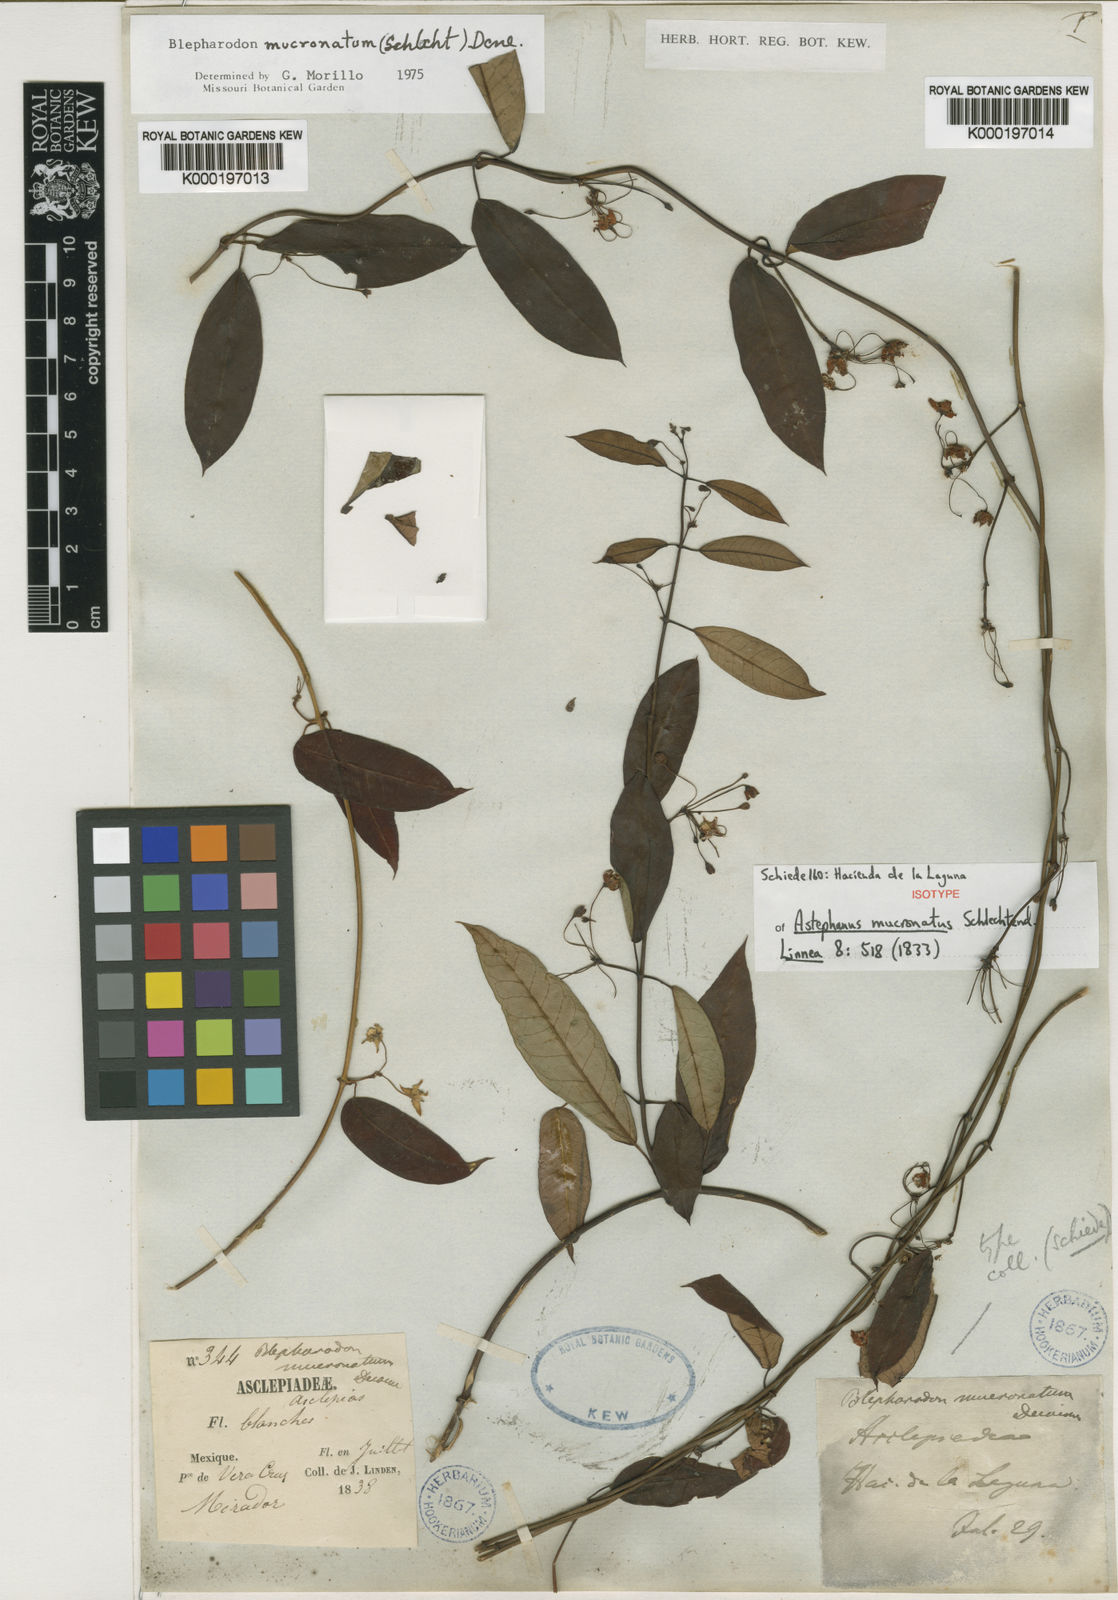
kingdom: Plantae
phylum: Tracheophyta
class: Magnoliopsida
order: Gentianales
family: Apocynaceae
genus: Vailia
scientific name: Vailia anomala
